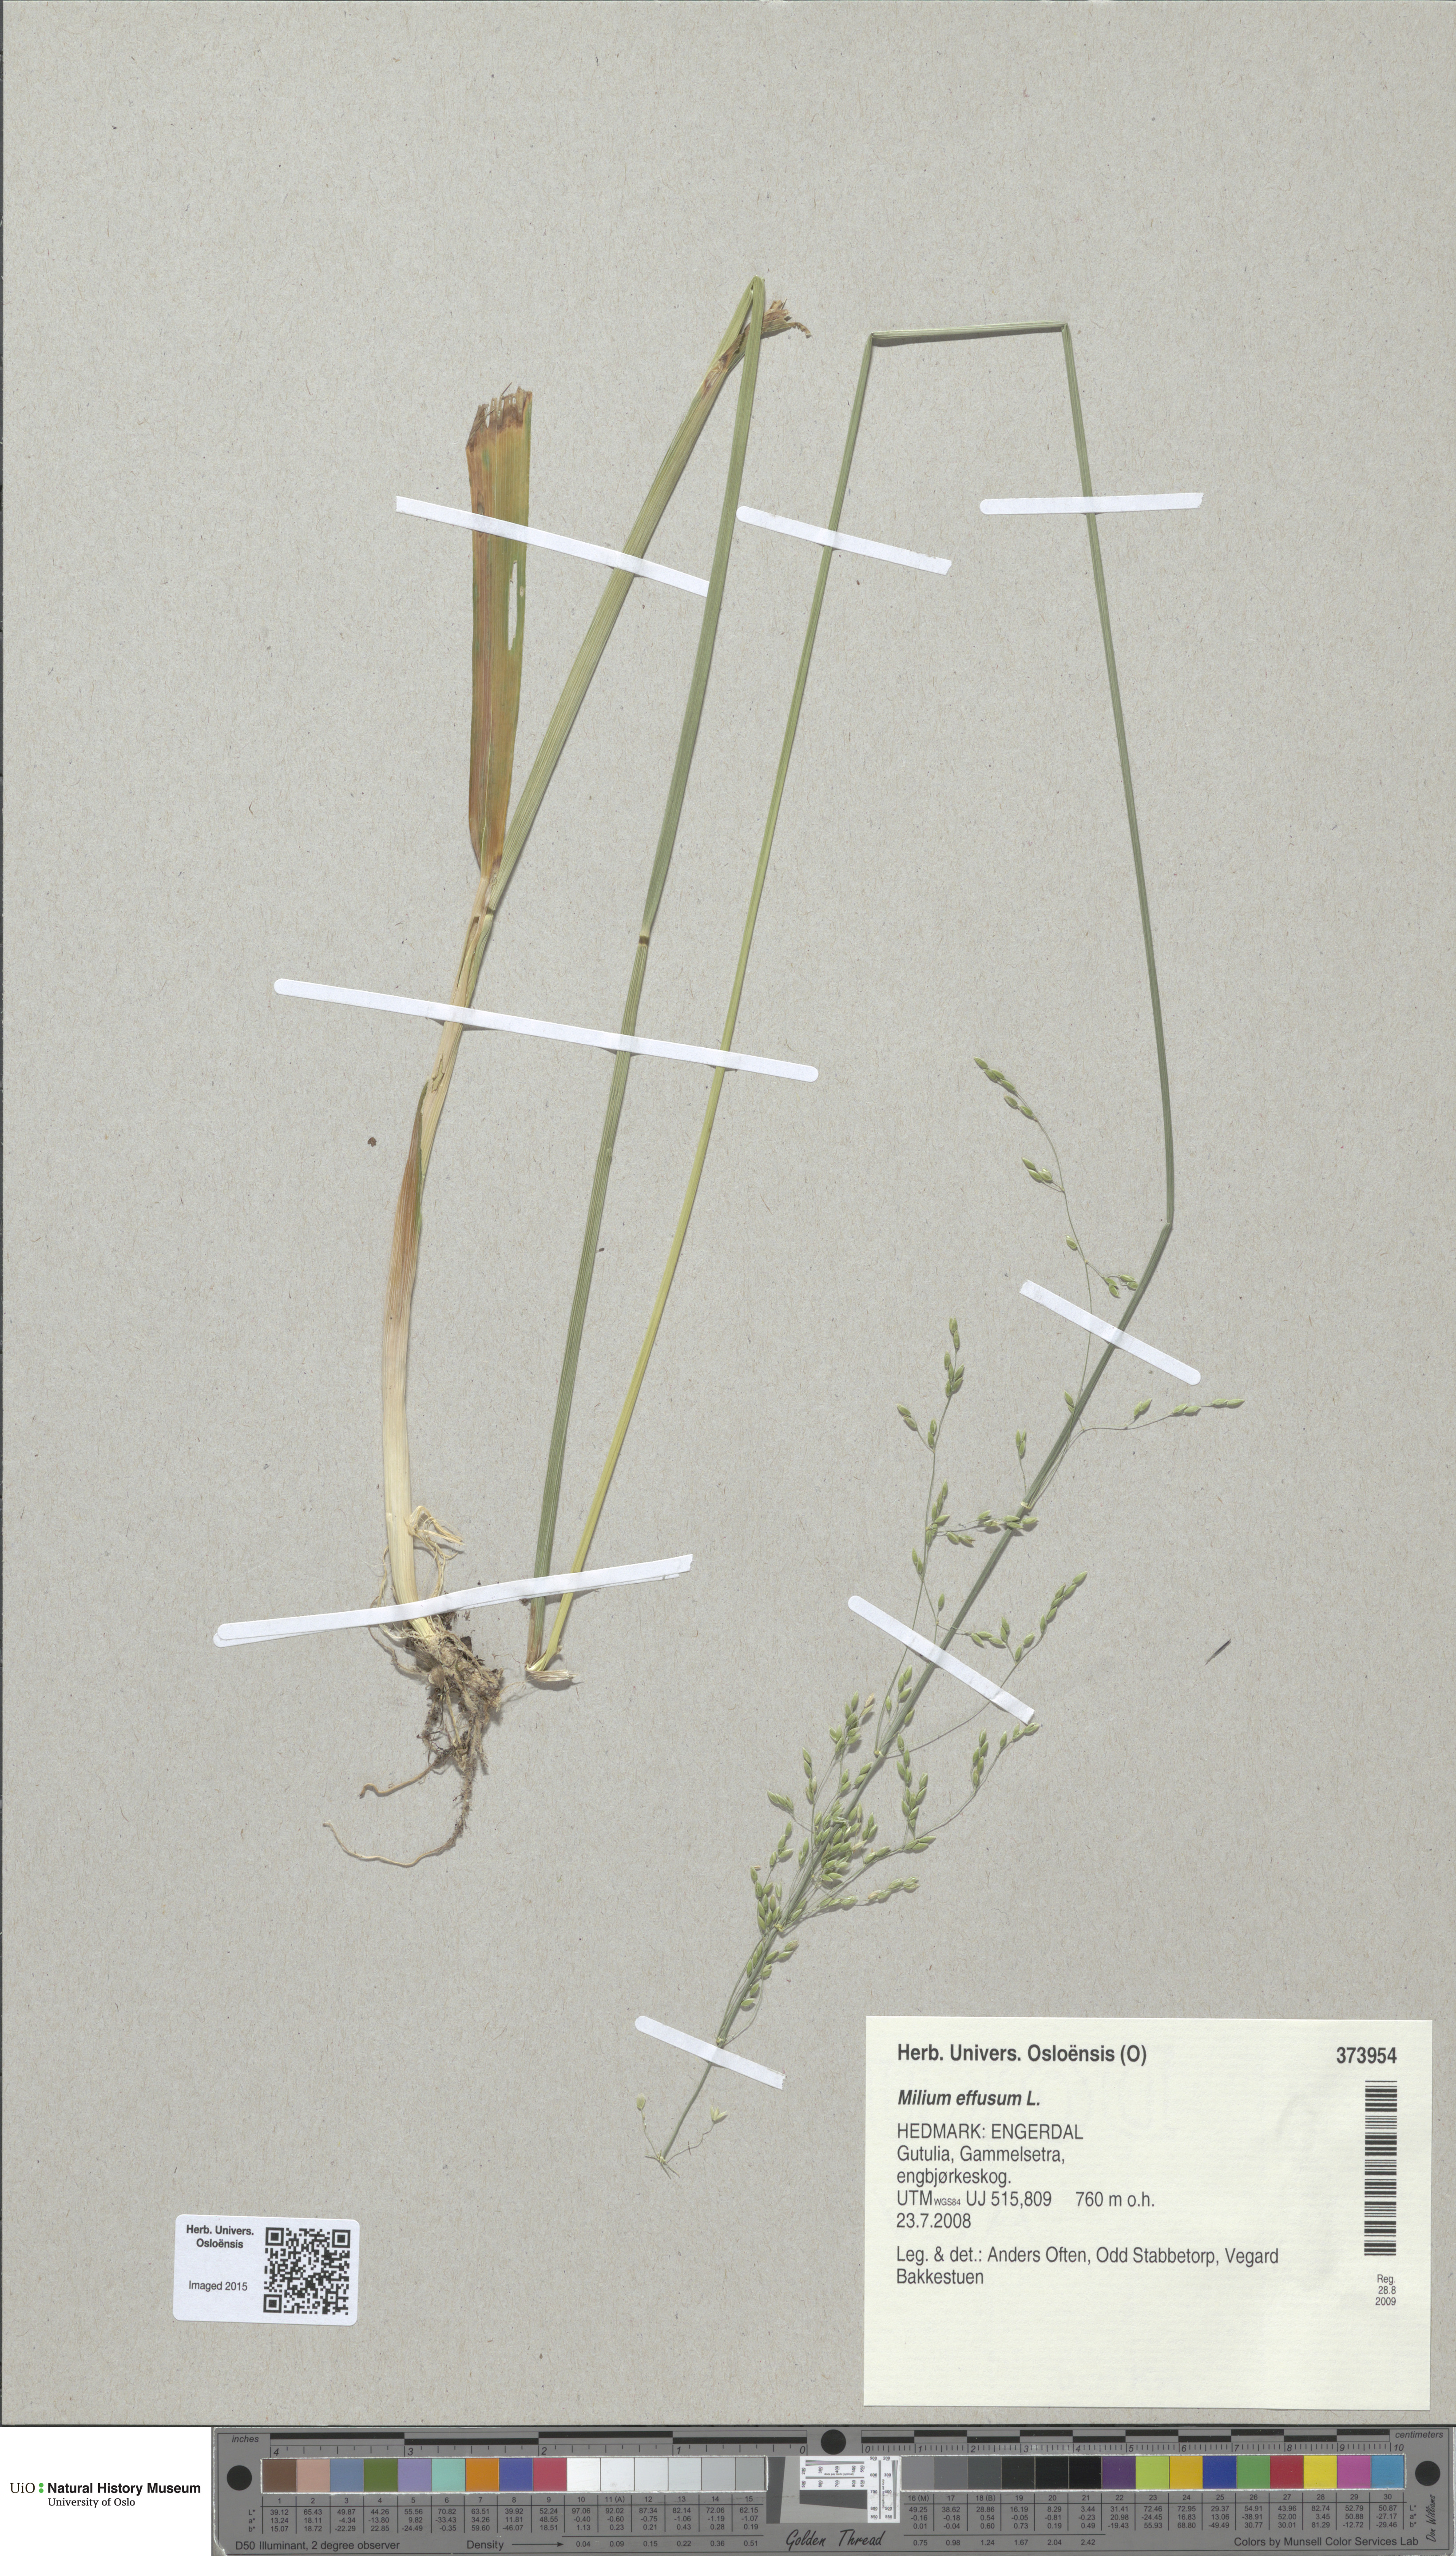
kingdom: Plantae
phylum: Tracheophyta
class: Liliopsida
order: Poales
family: Poaceae
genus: Milium
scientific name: Milium effusum
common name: Wood millet
